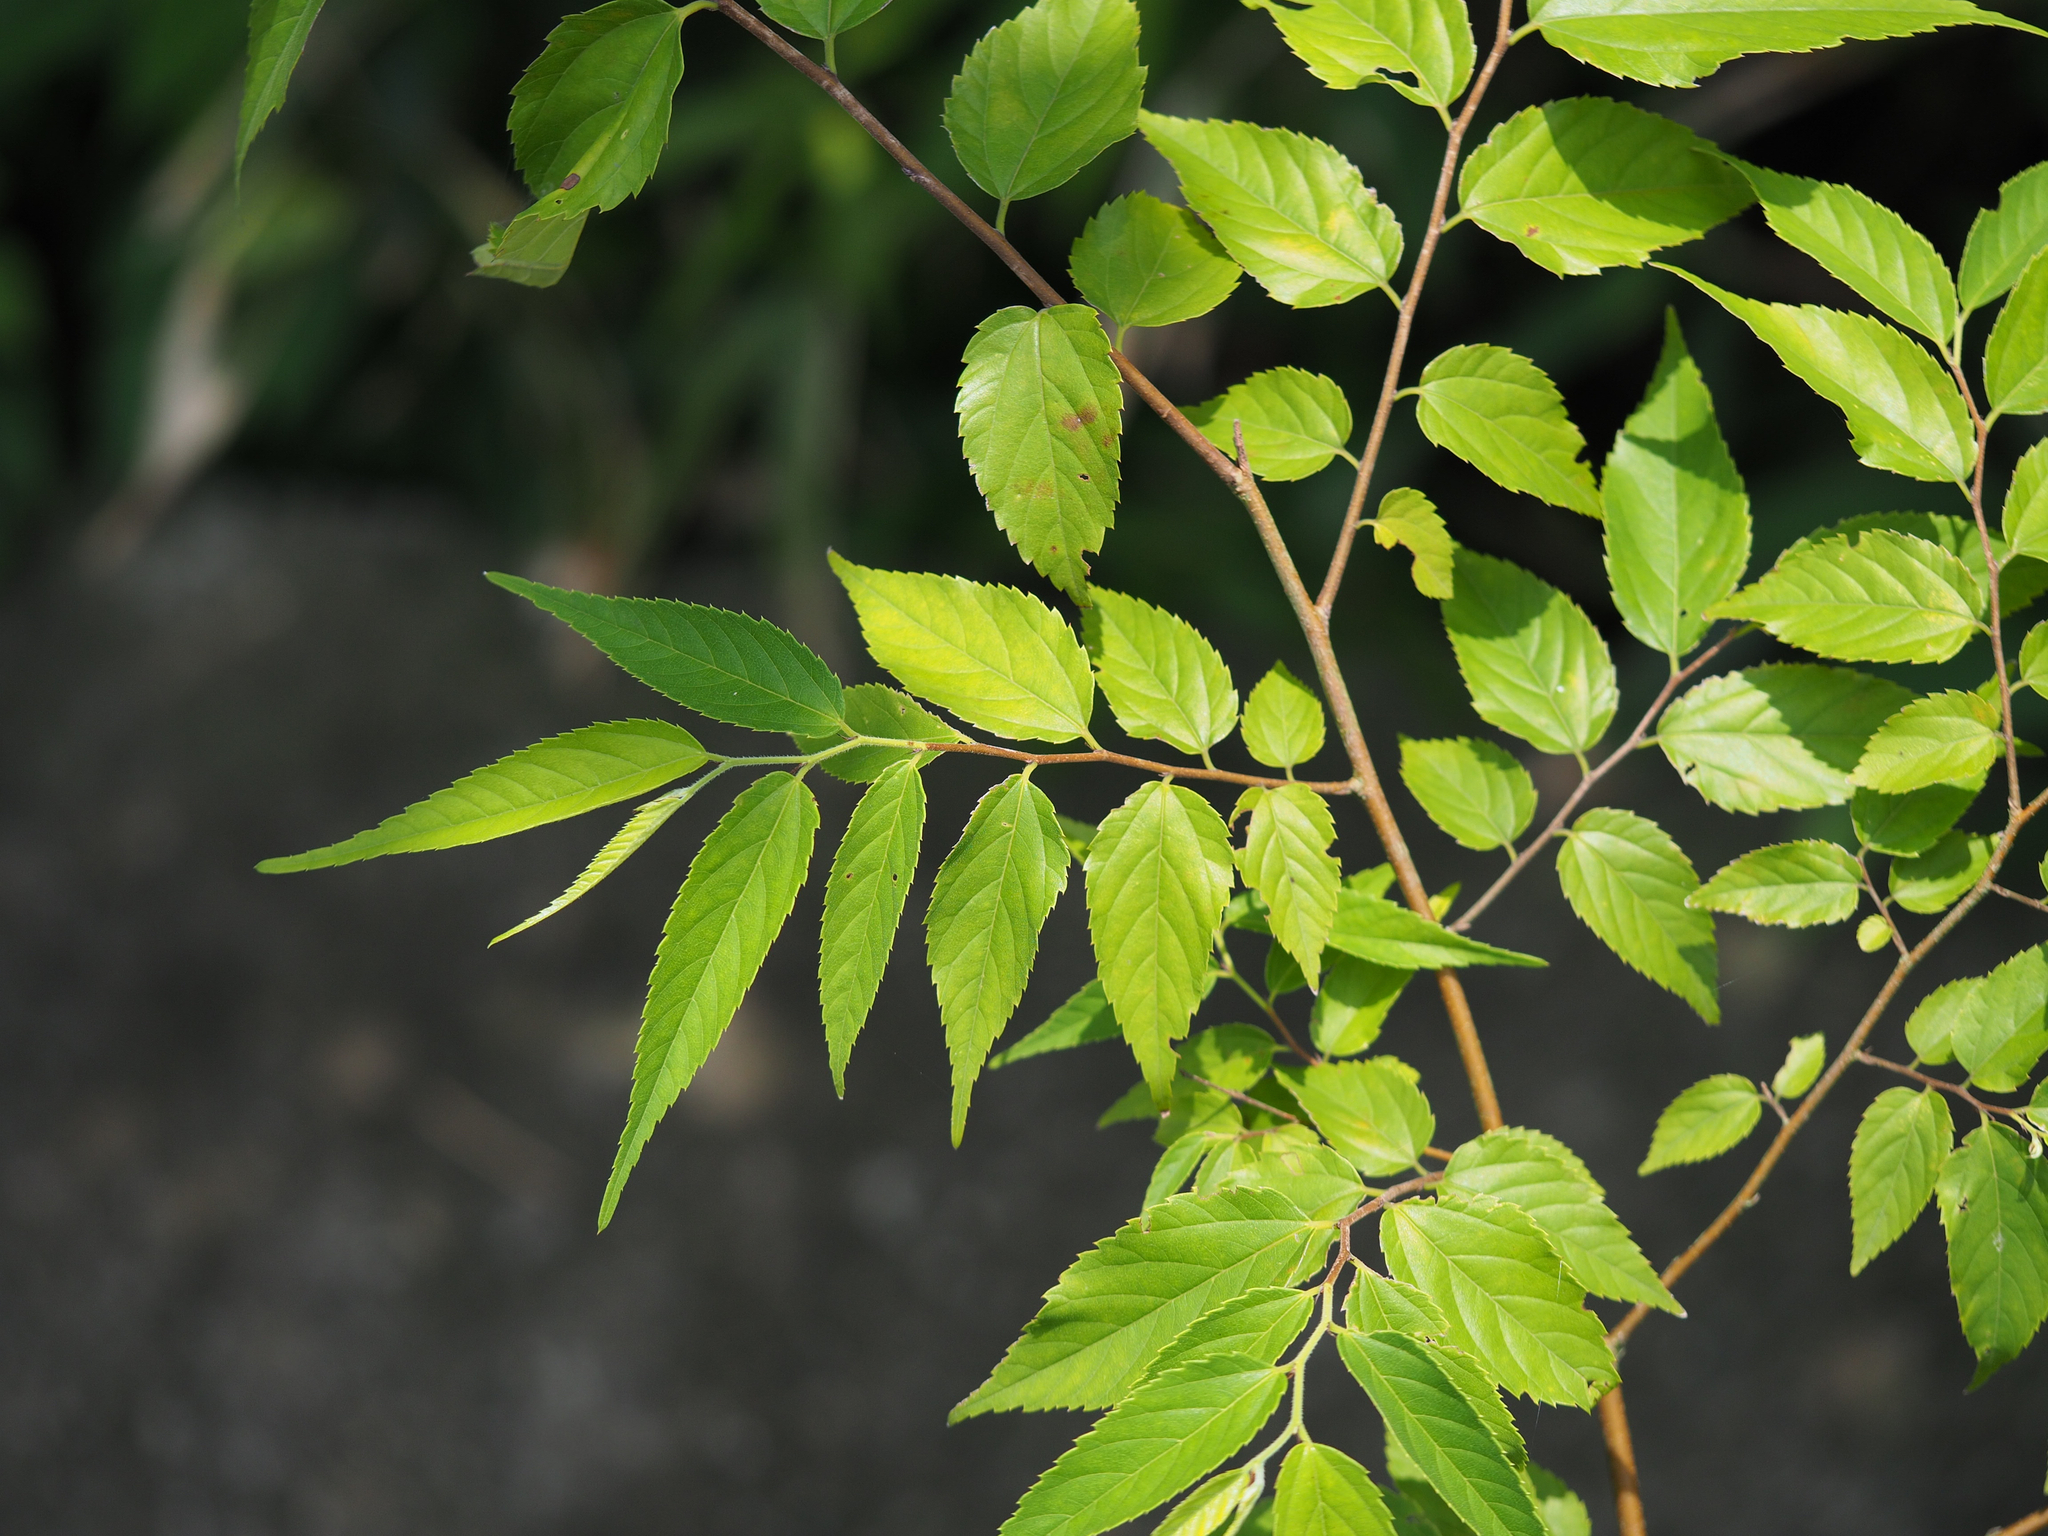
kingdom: Plantae
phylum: Tracheophyta
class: Magnoliopsida
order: Rosales
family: Cannabaceae
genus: Aphananthe
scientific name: Aphananthe aspera
